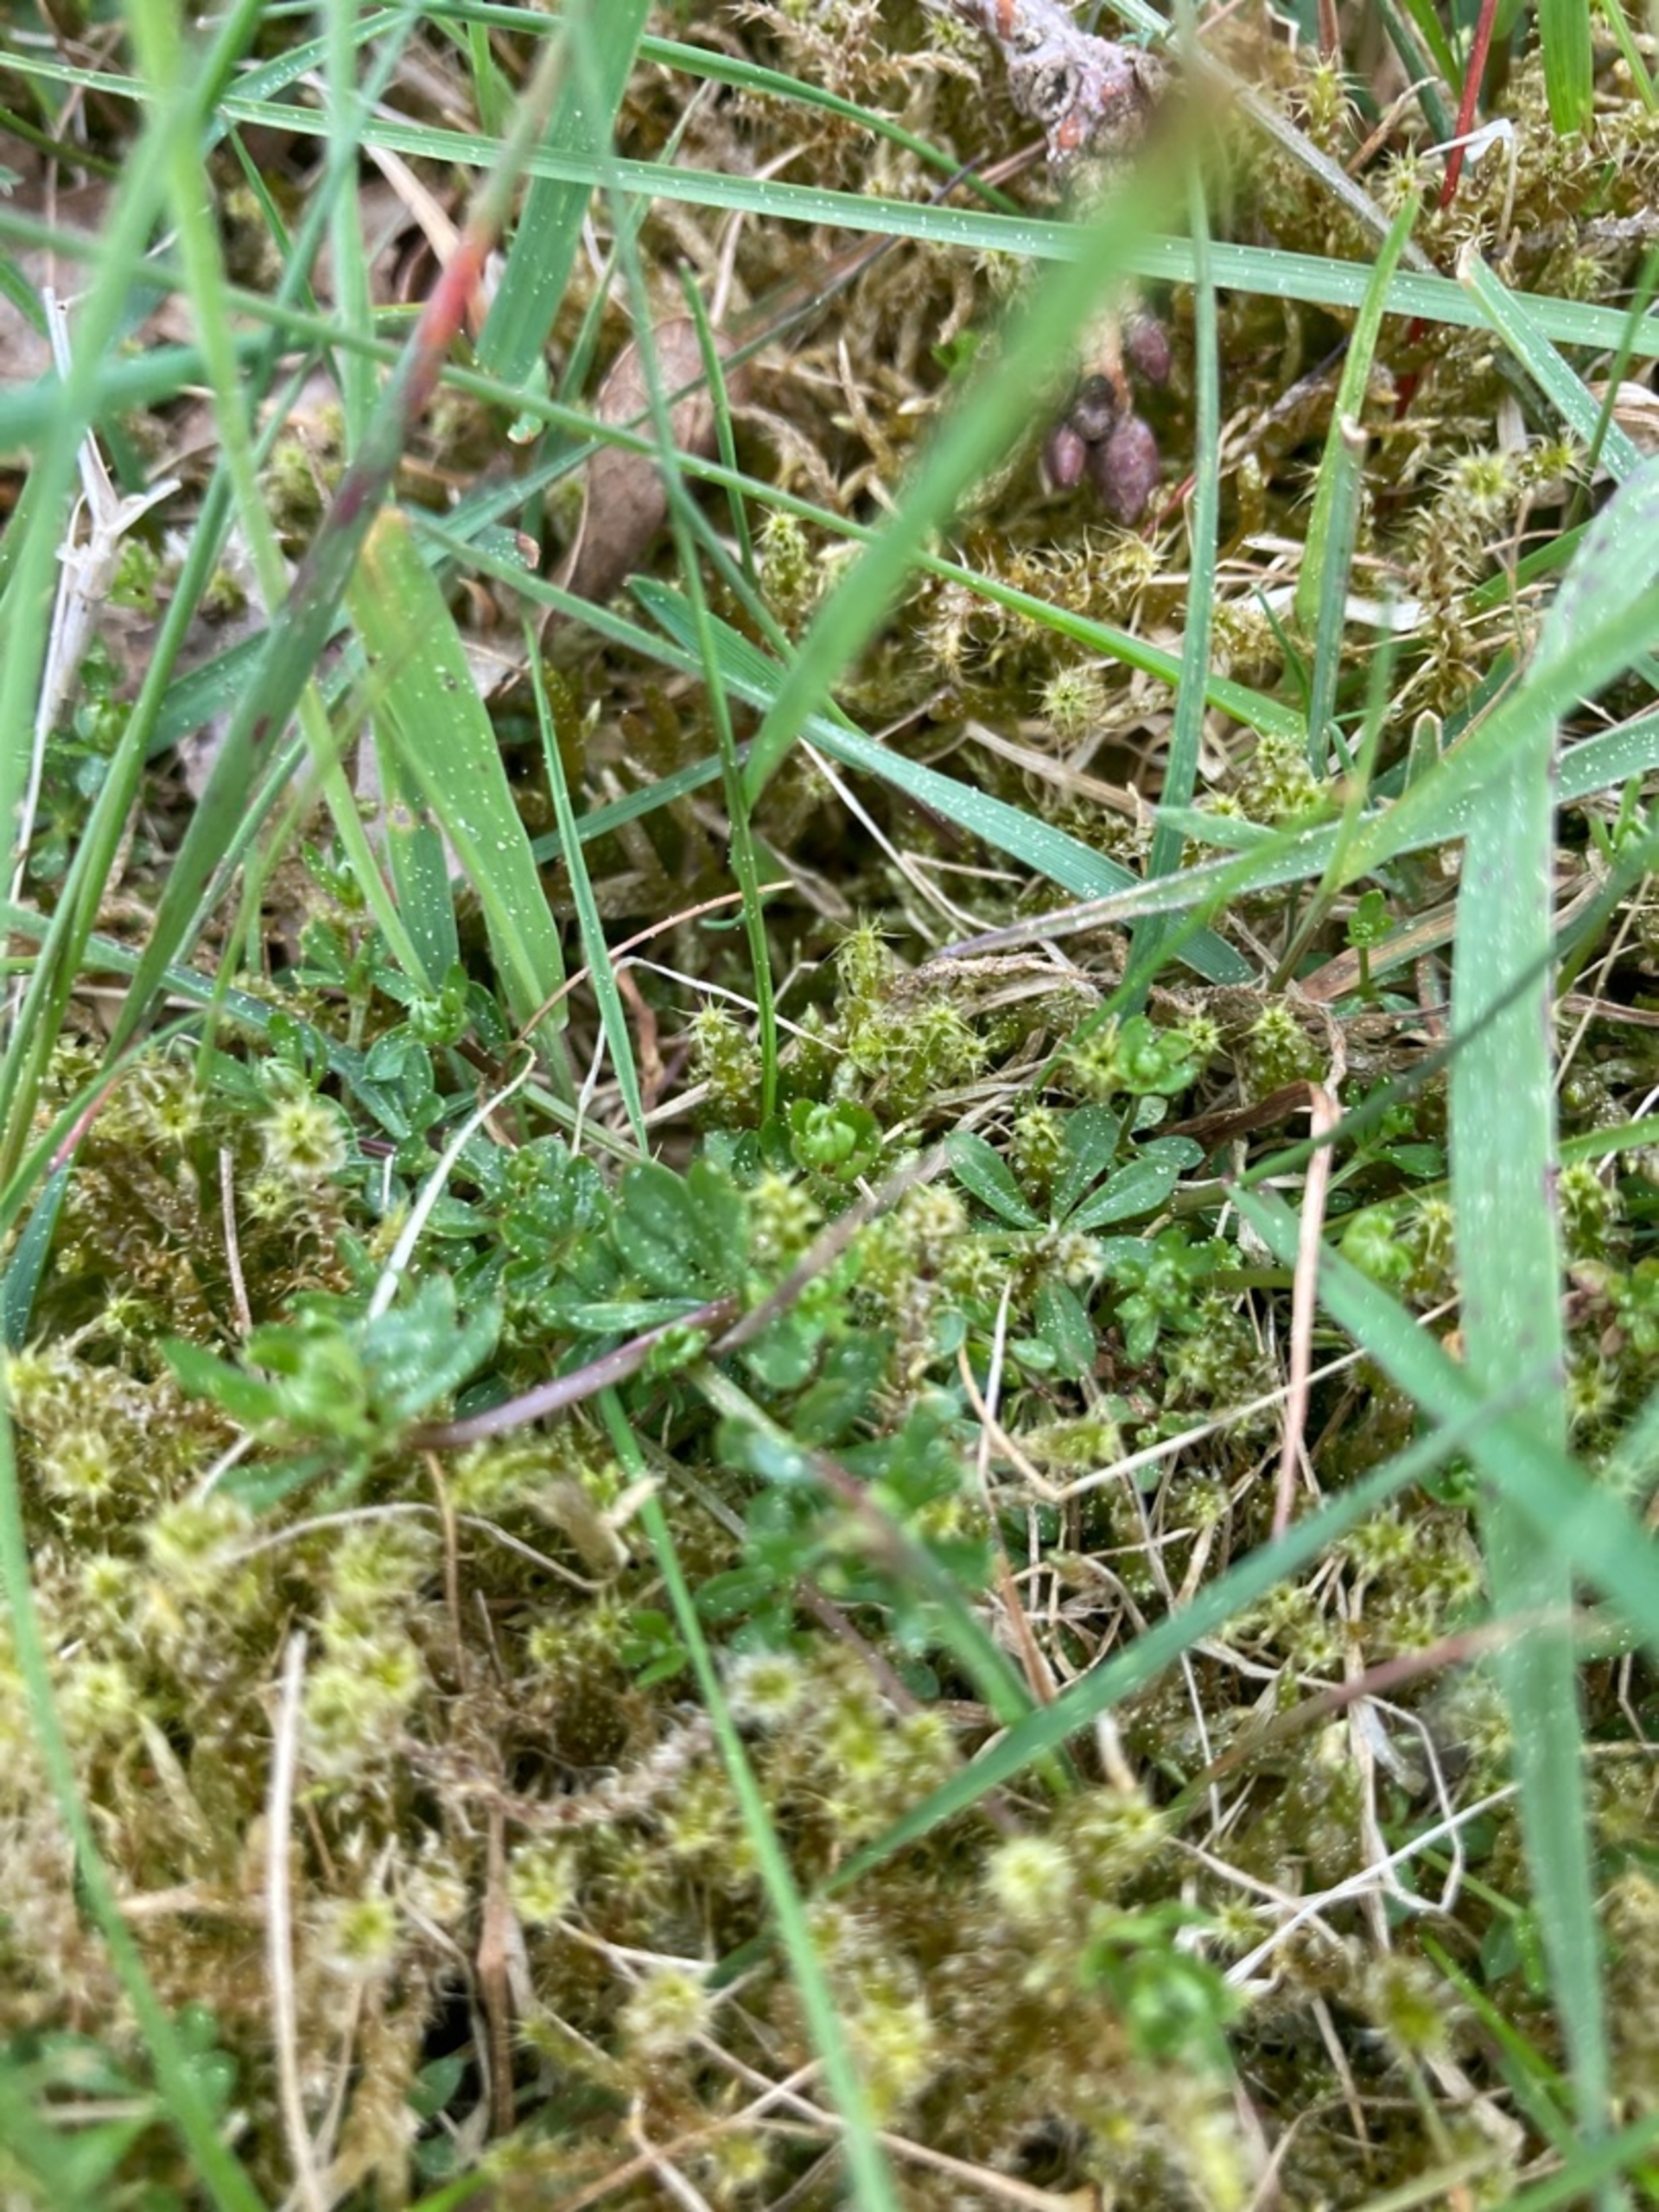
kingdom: Plantae
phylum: Bryophyta
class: Bryopsida
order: Hypnales
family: Hylocomiaceae
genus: Rhytidiadelphus
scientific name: Rhytidiadelphus squarrosus
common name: Plæne-kransemos
